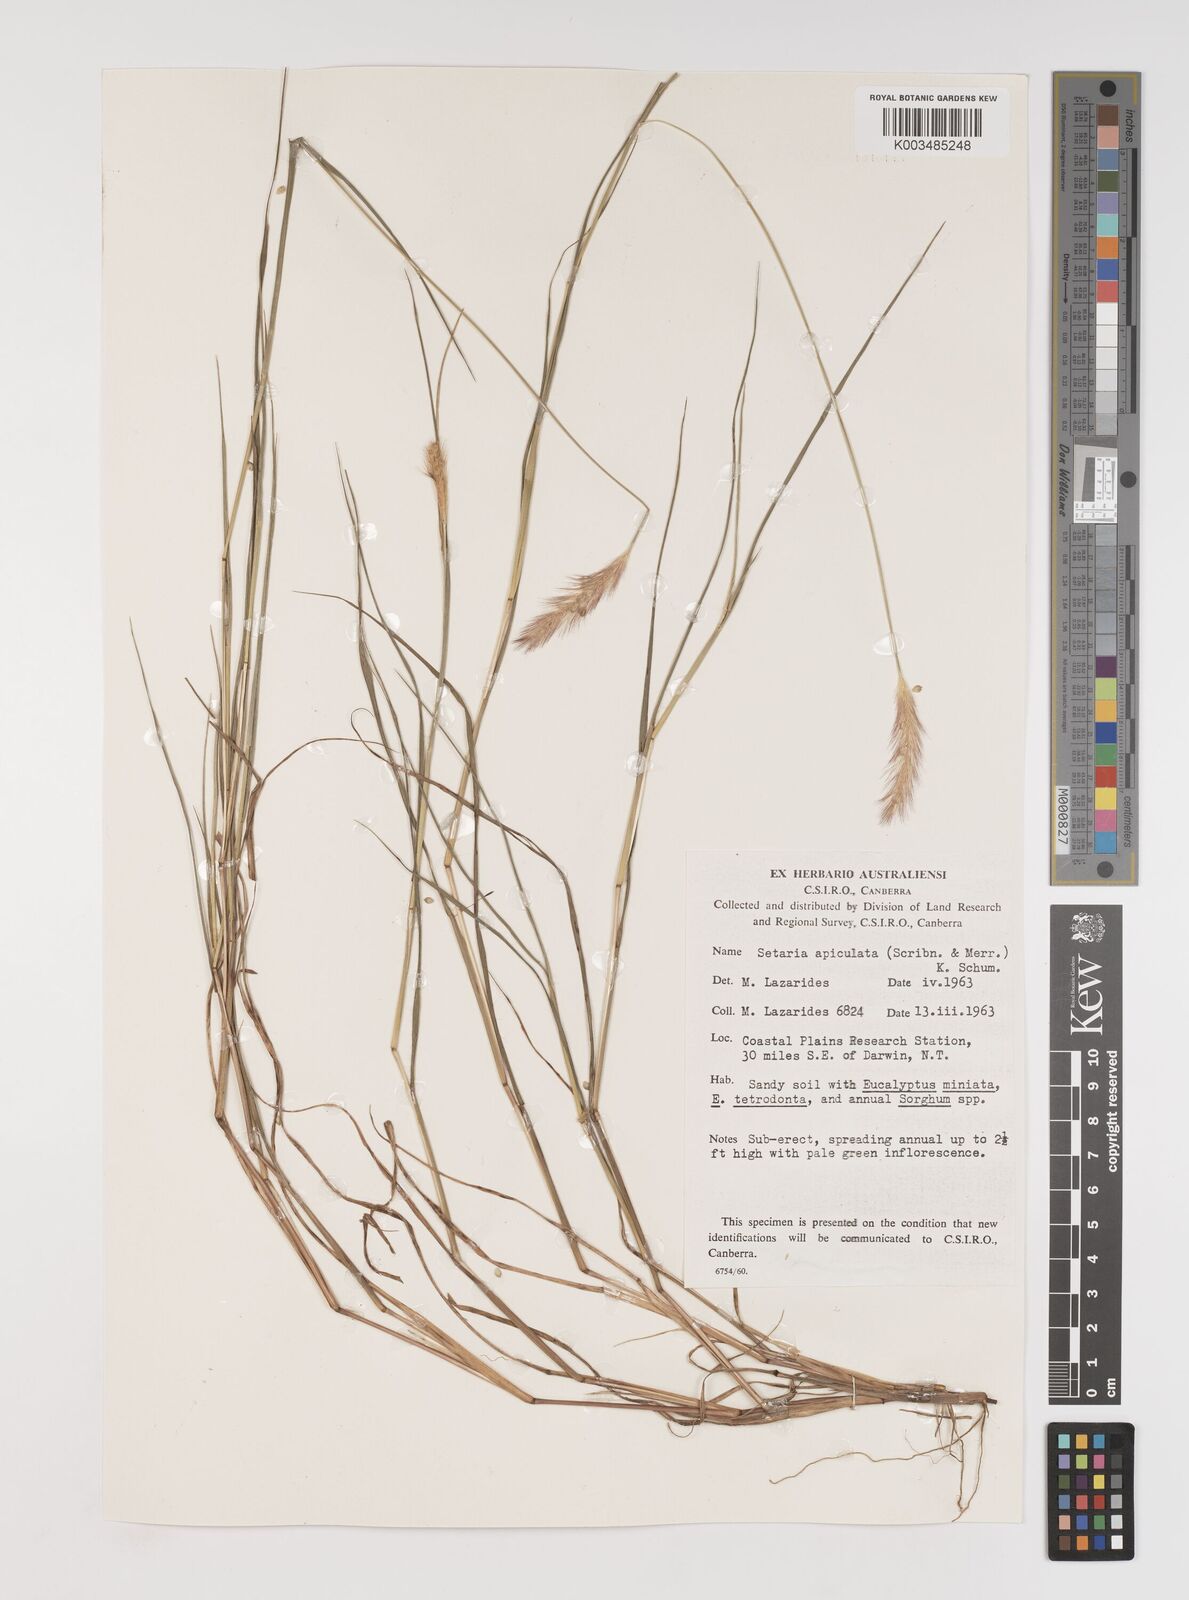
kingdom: Plantae
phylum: Tracheophyta
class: Liliopsida
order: Poales
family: Poaceae
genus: Setaria
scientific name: Setaria apiculata
